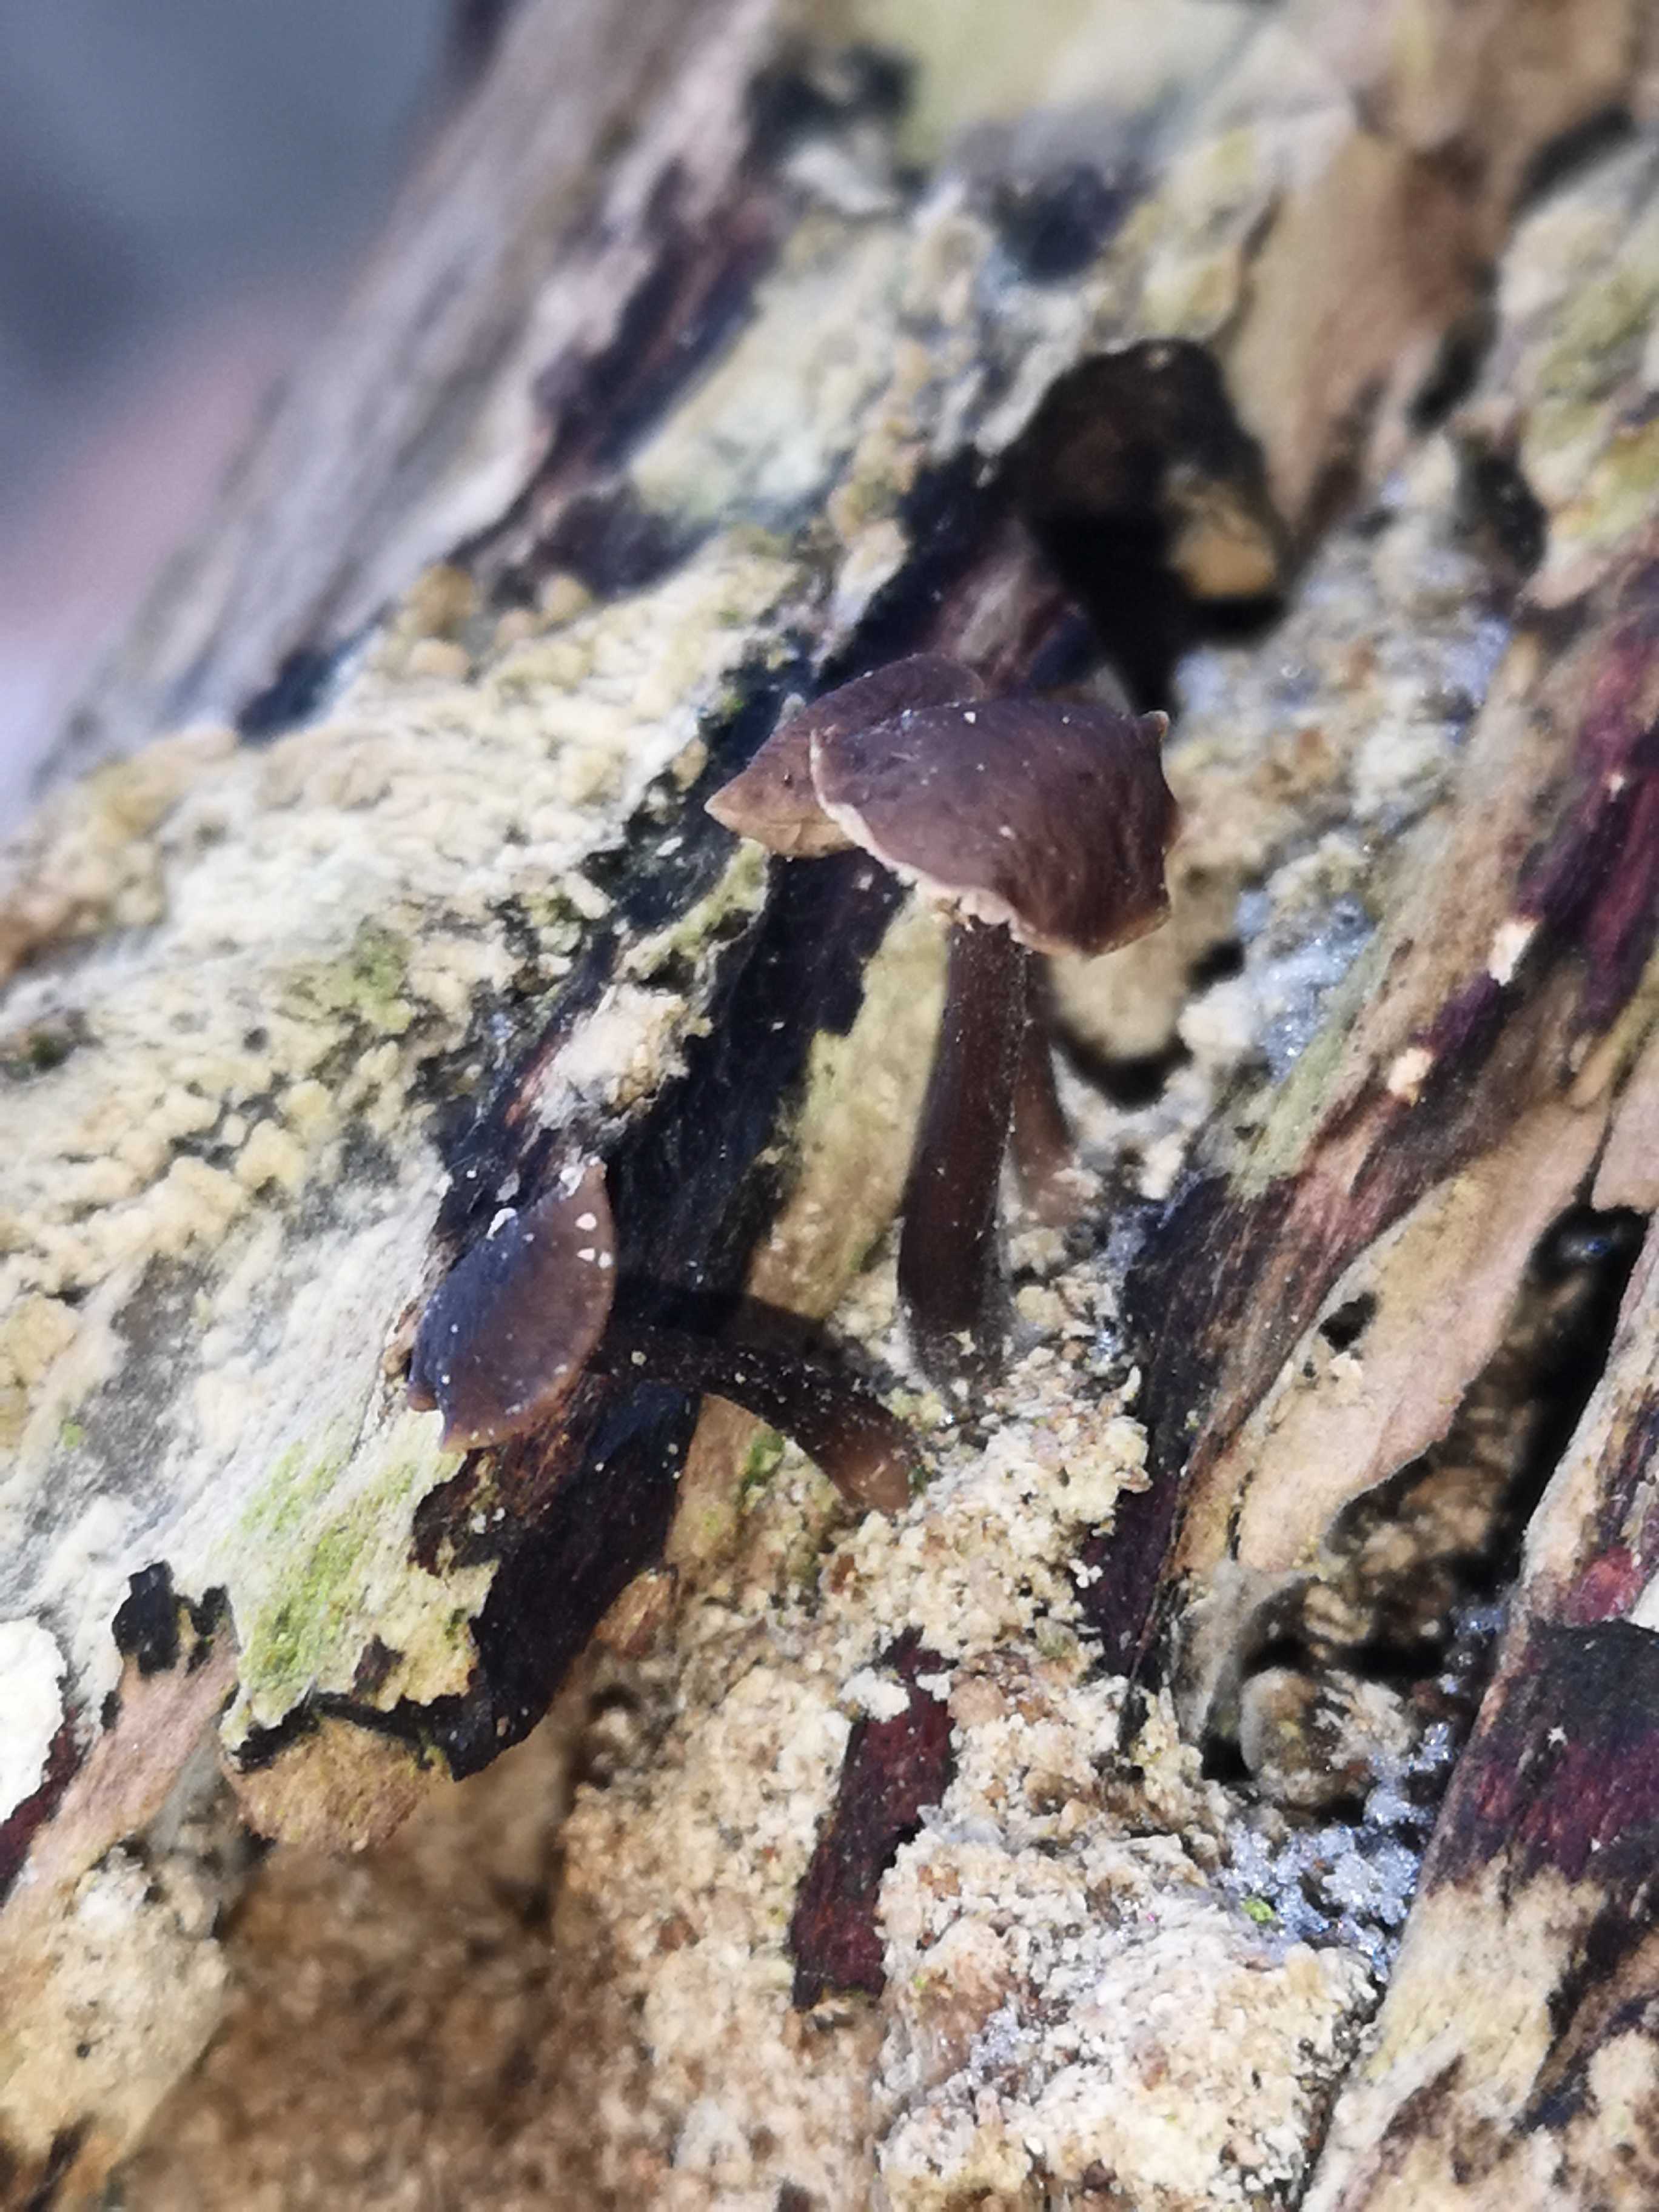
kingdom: Fungi
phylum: Basidiomycota
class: Agaricomycetes
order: Agaricales
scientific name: Agaricales
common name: champignonordenen
